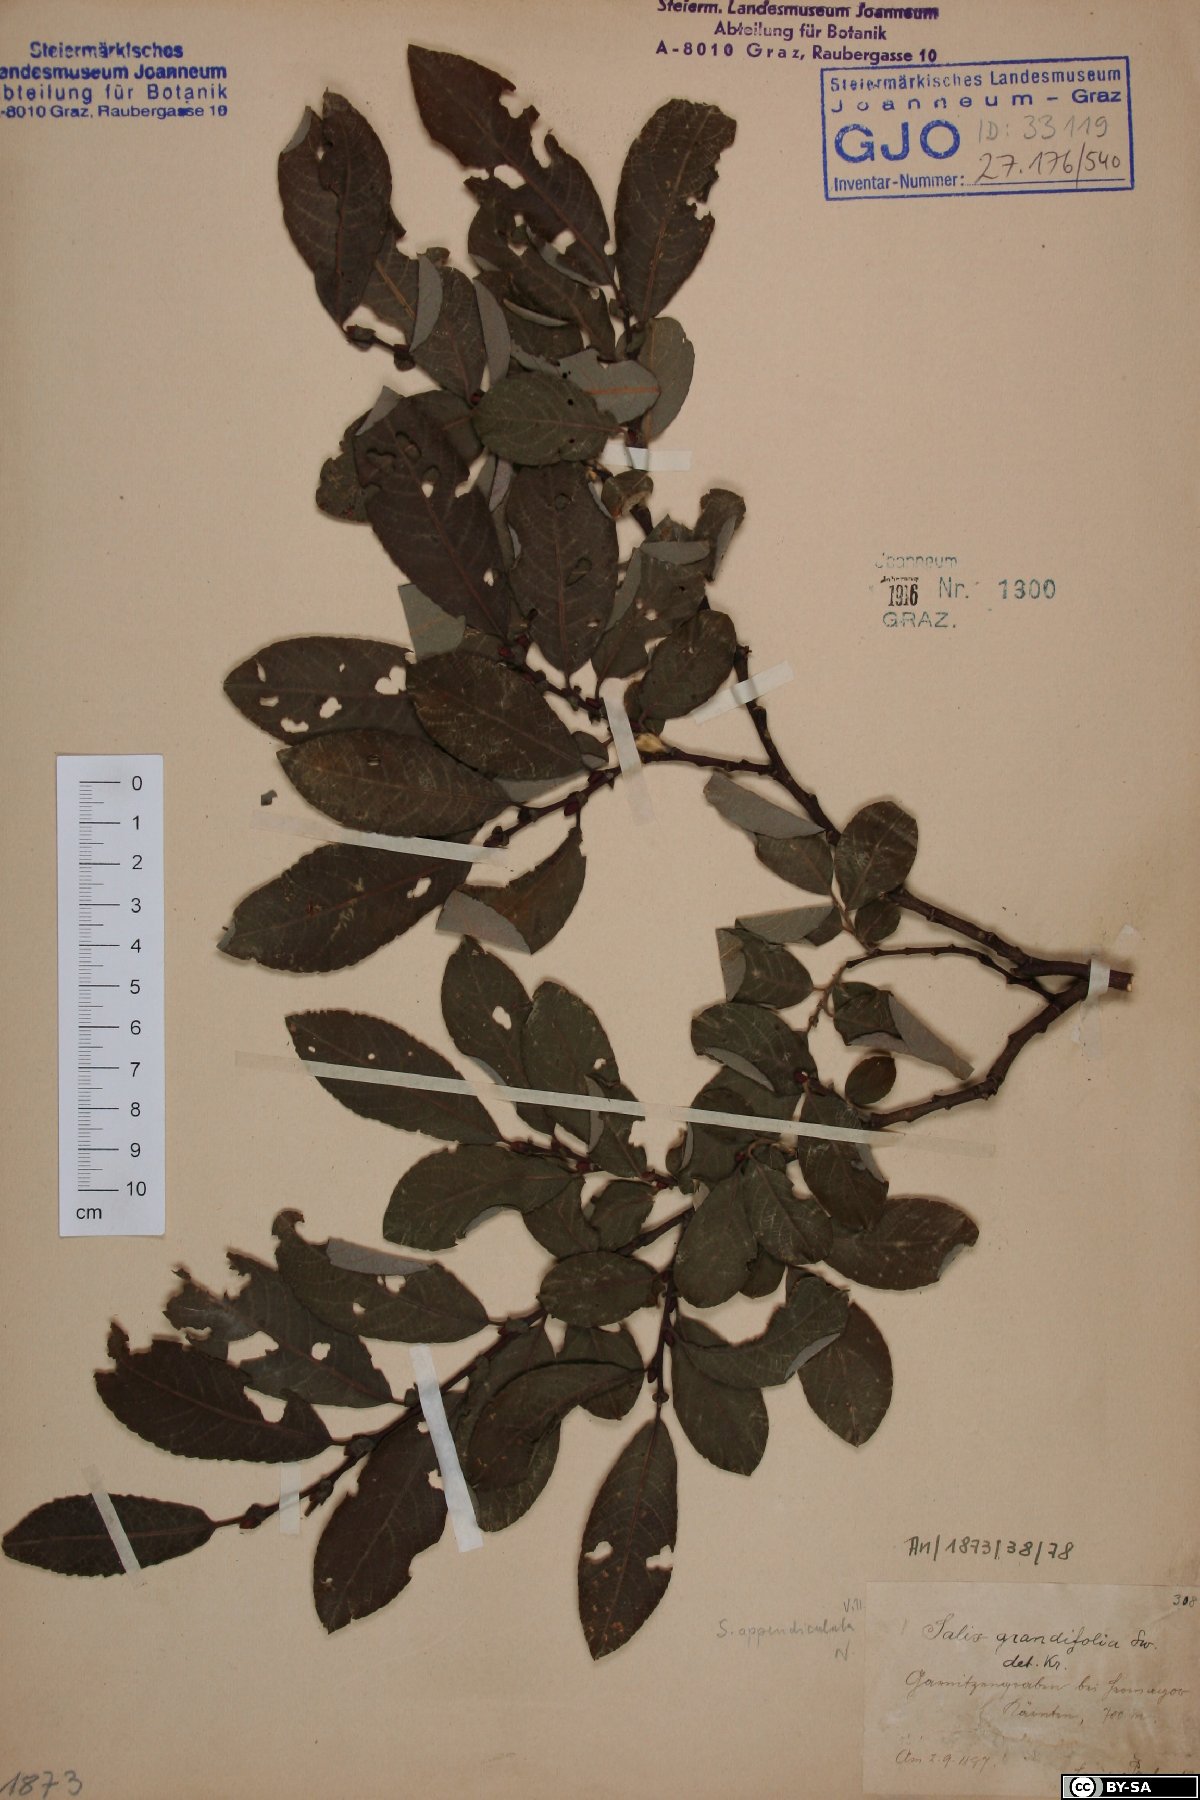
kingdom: Plantae
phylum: Tracheophyta
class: Magnoliopsida
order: Malpighiales
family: Salicaceae
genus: Salix
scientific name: Salix appendiculata
